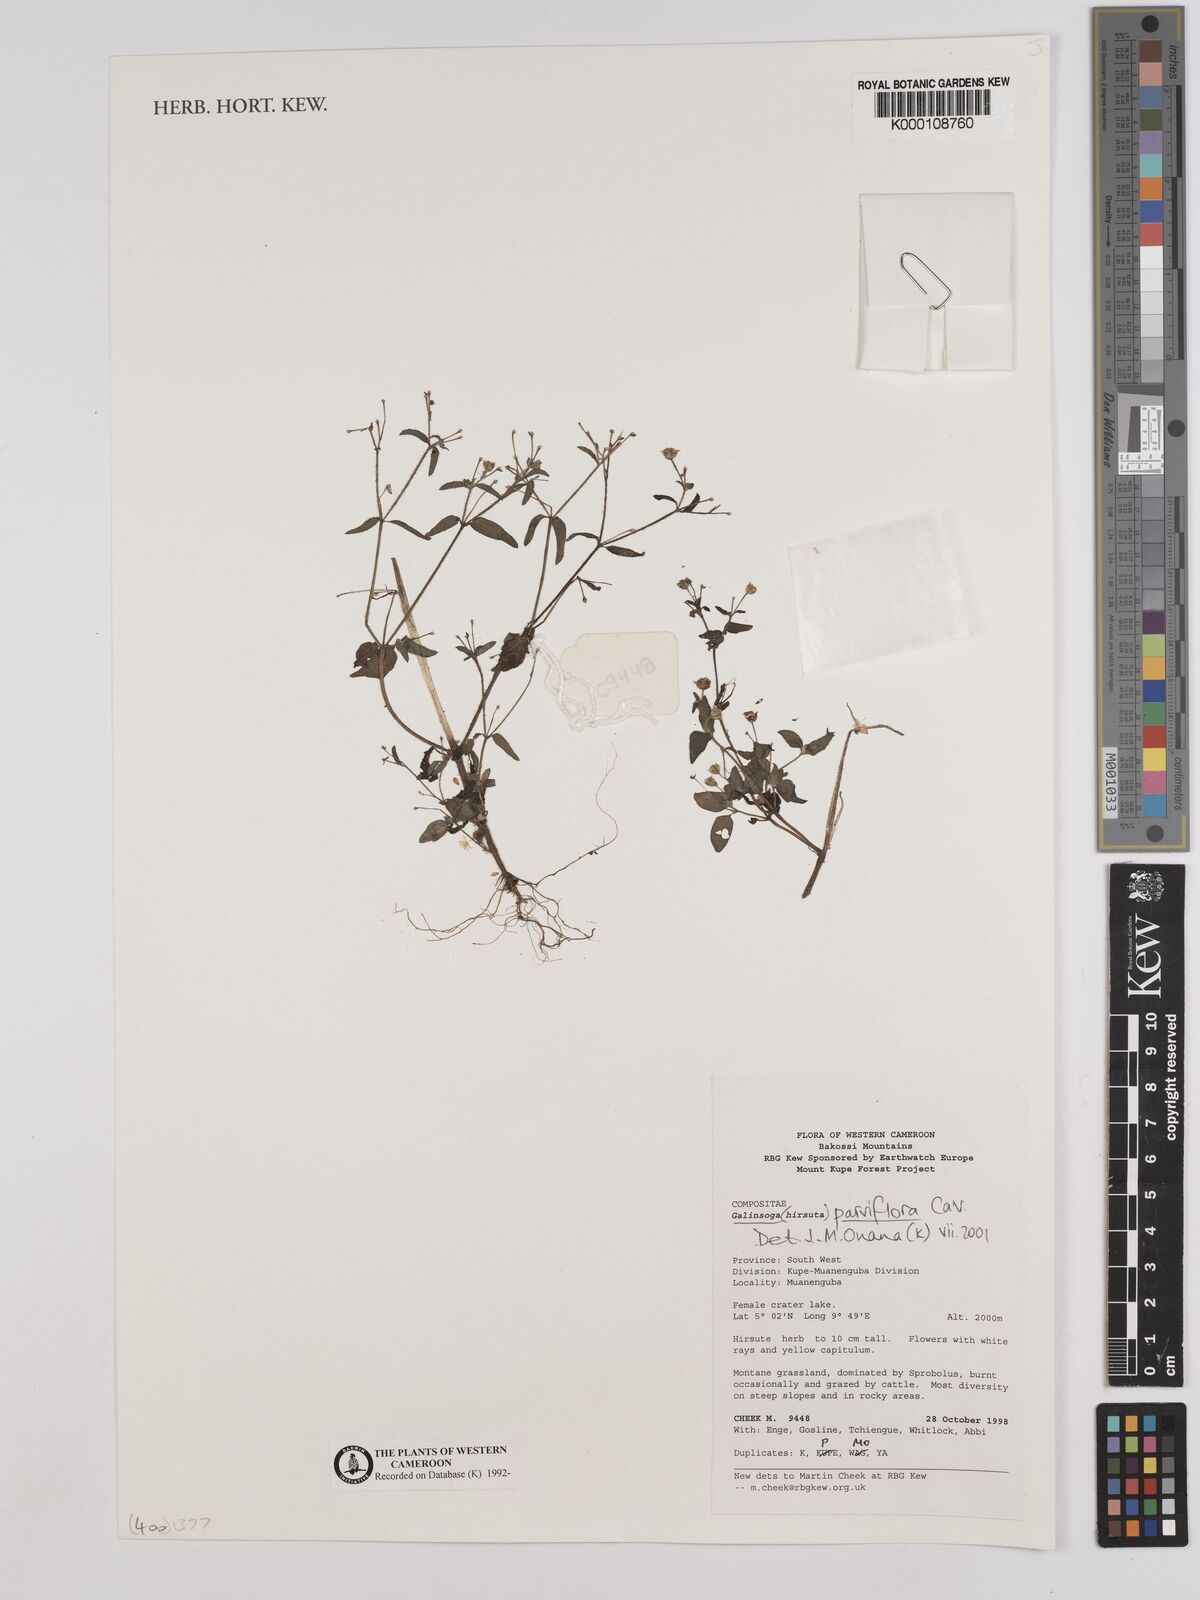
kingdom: Plantae
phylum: Tracheophyta
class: Magnoliopsida
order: Asterales
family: Asteraceae
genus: Galinsoga
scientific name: Galinsoga parviflora
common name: Gallant soldier
